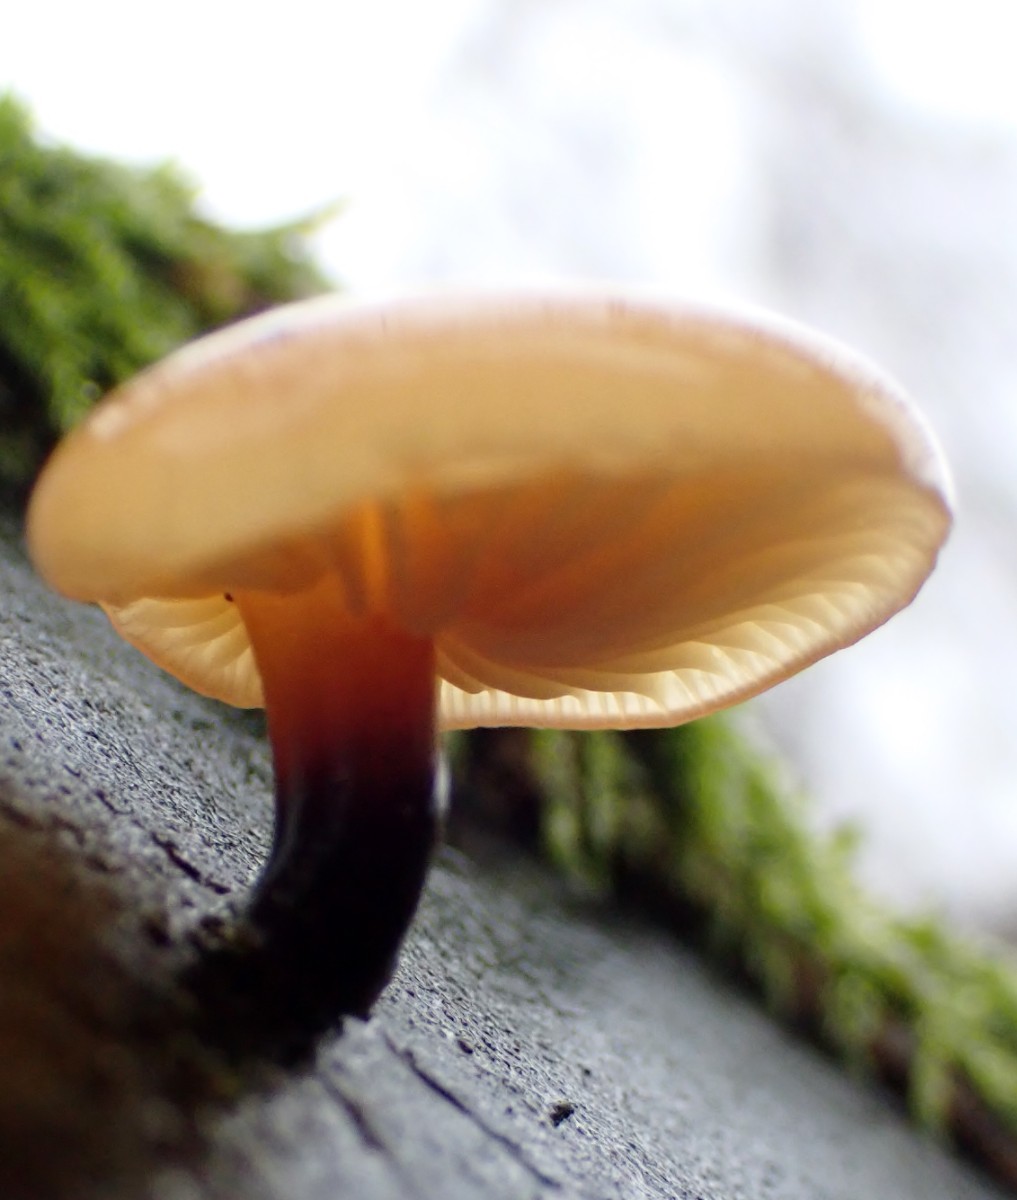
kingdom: Fungi
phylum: Basidiomycota
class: Agaricomycetes
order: Agaricales
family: Physalacriaceae
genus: Flammulina
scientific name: Flammulina
